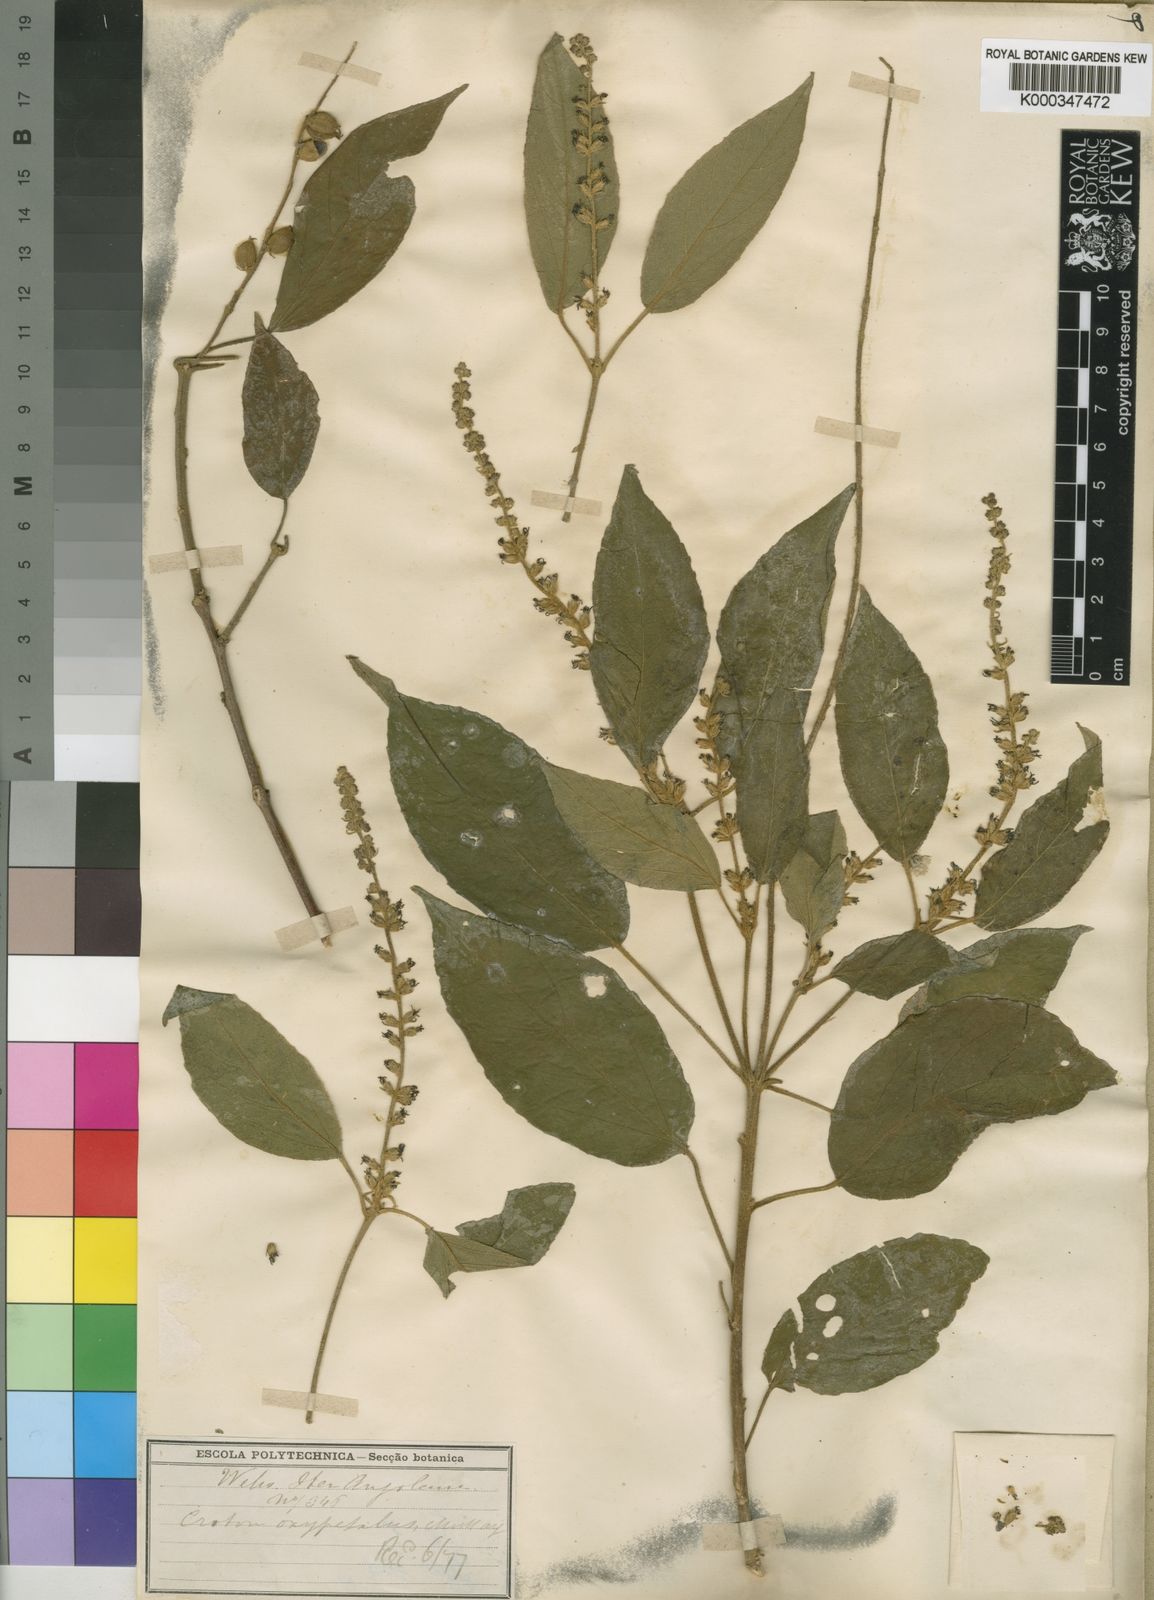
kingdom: Plantae
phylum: Tracheophyta
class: Magnoliopsida
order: Malpighiales
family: Euphorbiaceae
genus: Croton
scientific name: Croton sylvaticus
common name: Forest croton
